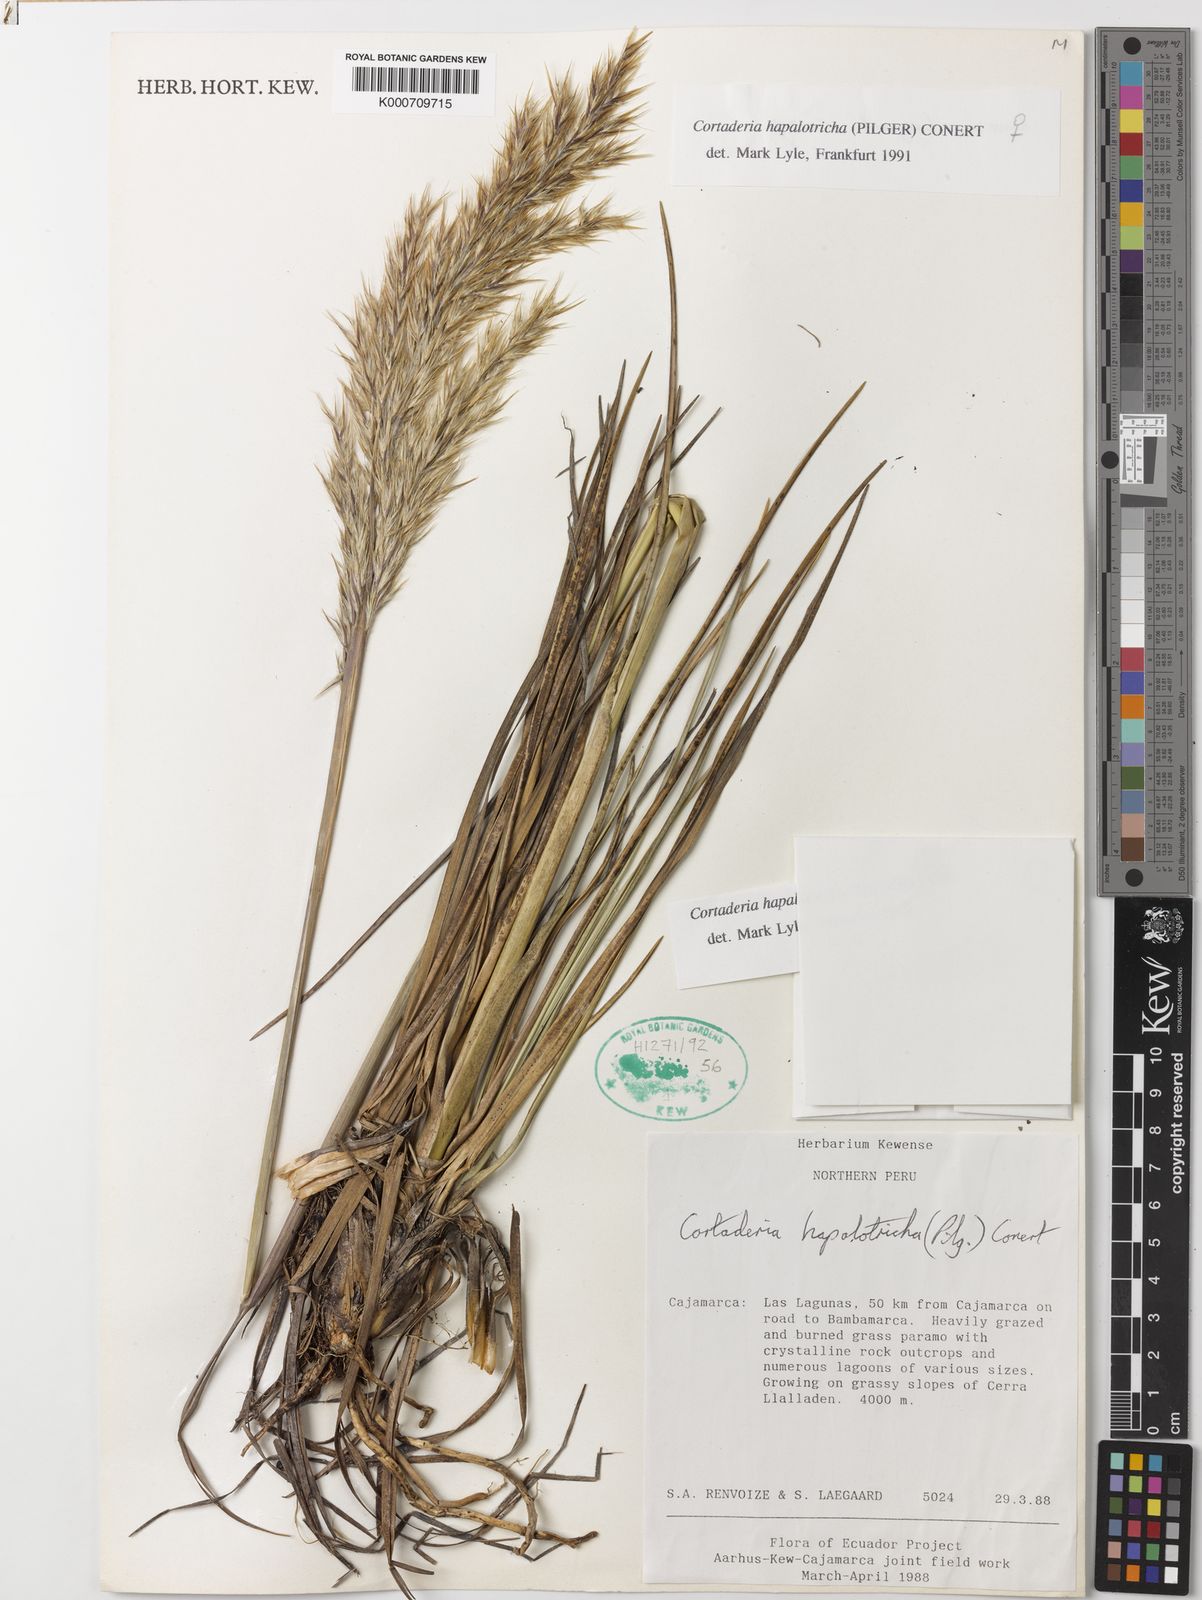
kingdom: Plantae
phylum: Tracheophyta
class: Liliopsida
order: Poales
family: Poaceae
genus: Cortaderia
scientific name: Cortaderia hapalotricha
